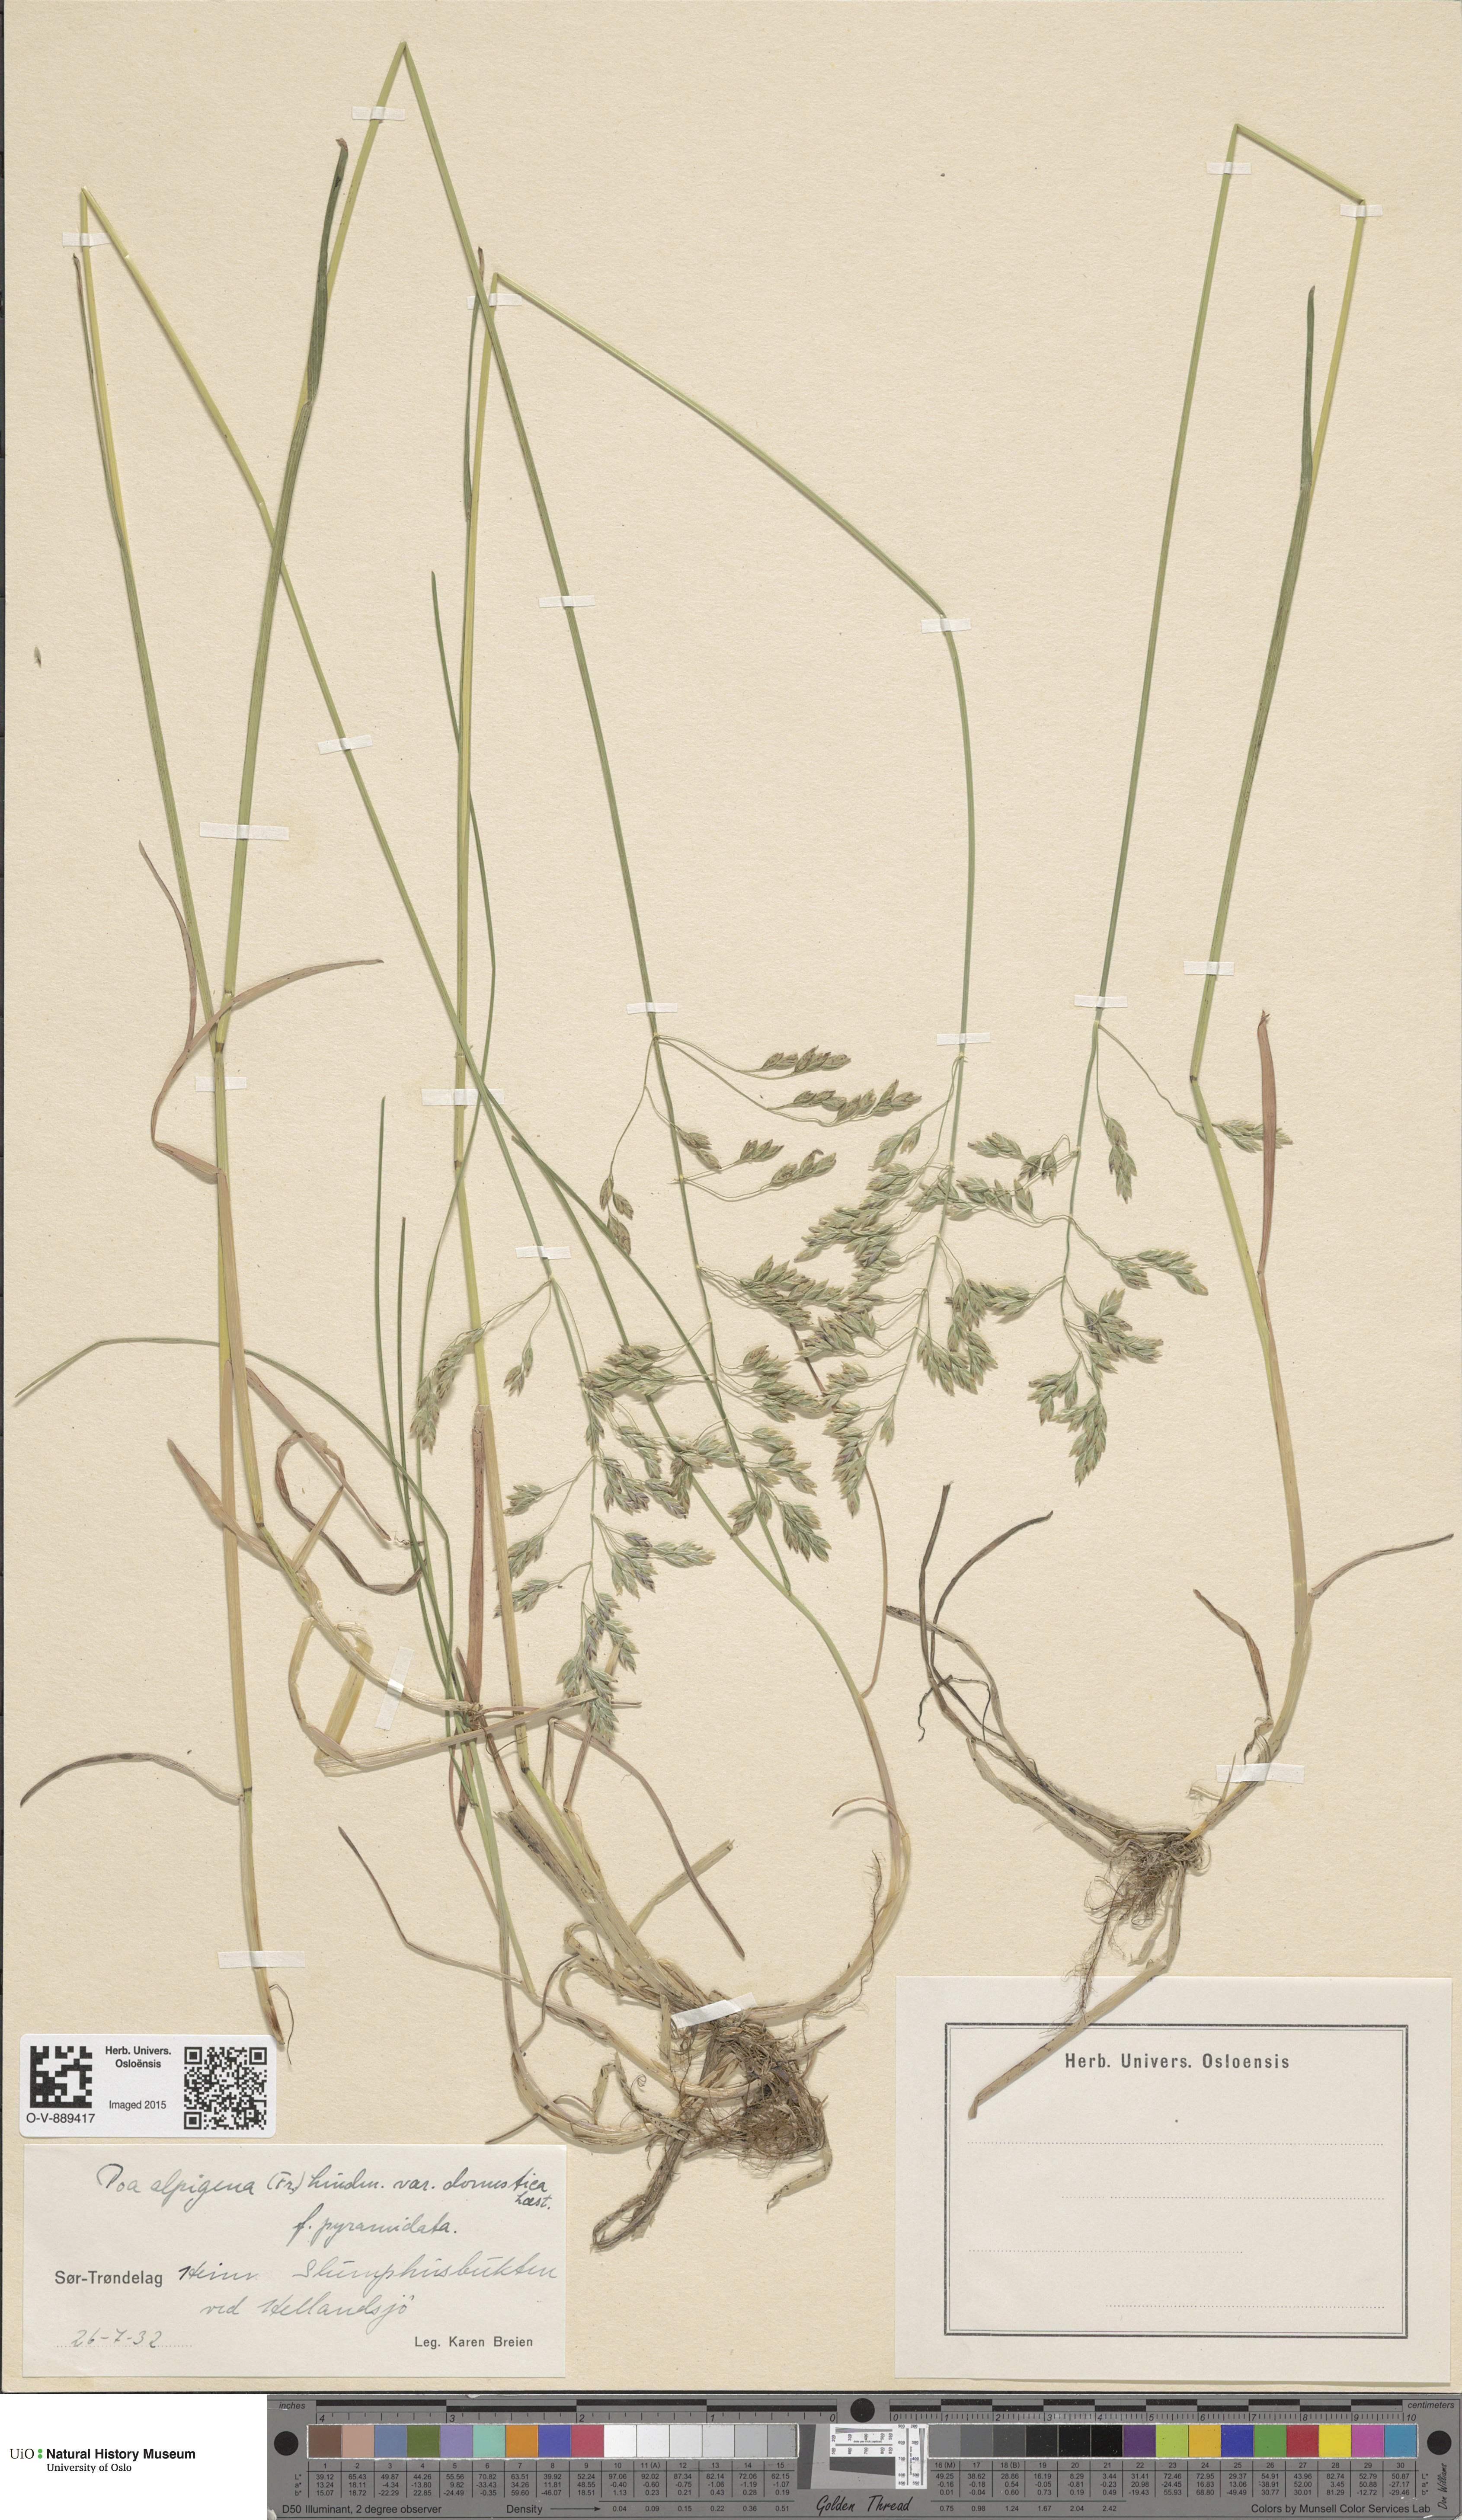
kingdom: Plantae
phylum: Tracheophyta
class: Liliopsida
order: Poales
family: Poaceae
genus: Poa
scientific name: Poa pratensis
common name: Kentucky bluegrass
